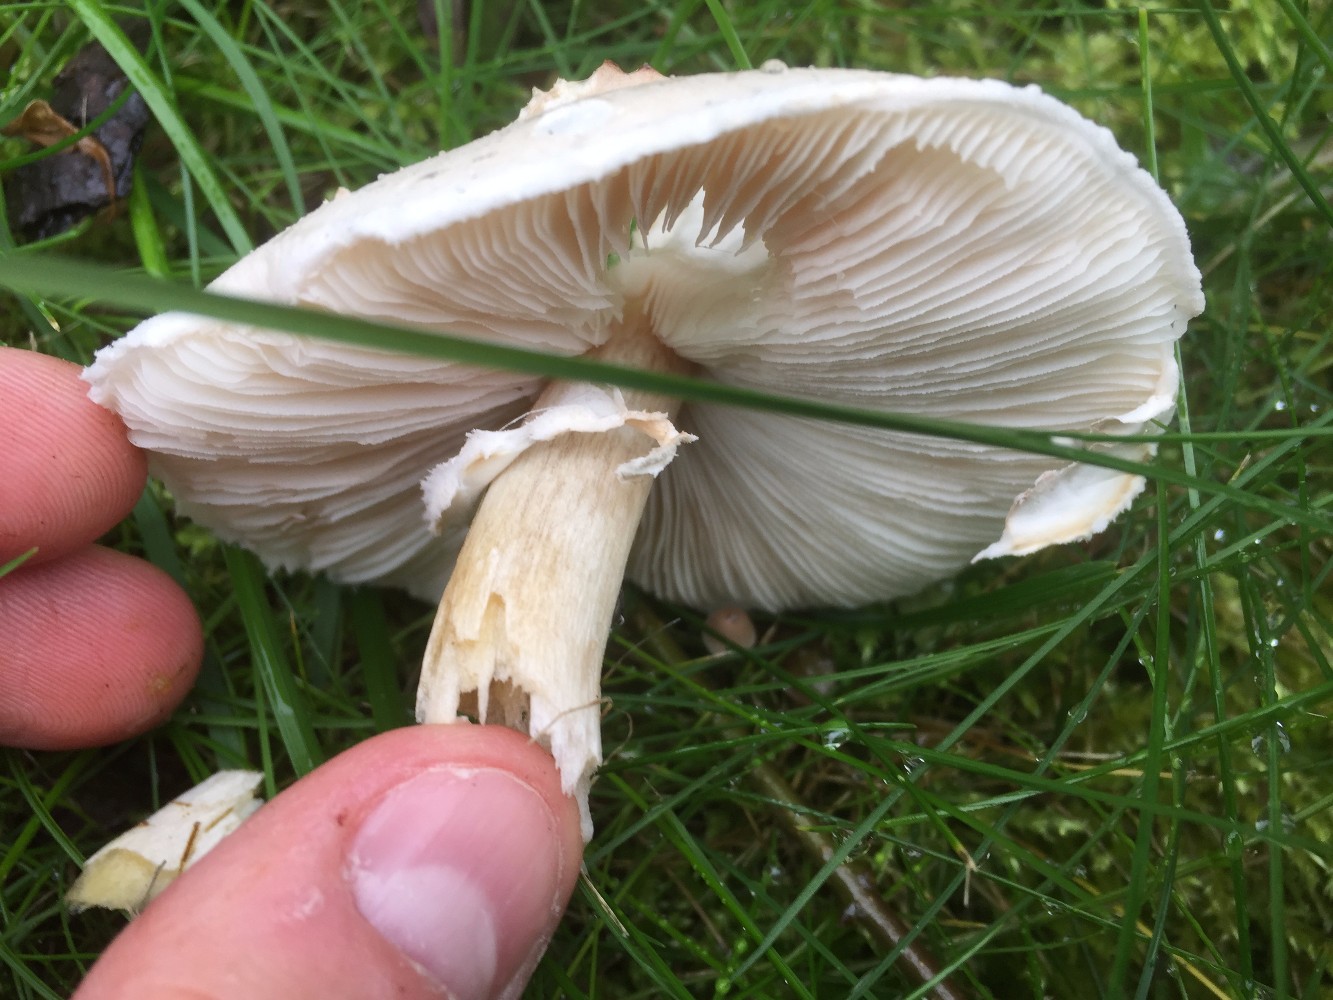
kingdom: Fungi
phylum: Basidiomycota
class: Agaricomycetes
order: Agaricales
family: Agaricaceae
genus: Leucoagaricus
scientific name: Leucoagaricus leucothites
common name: rosabladet silkehat
